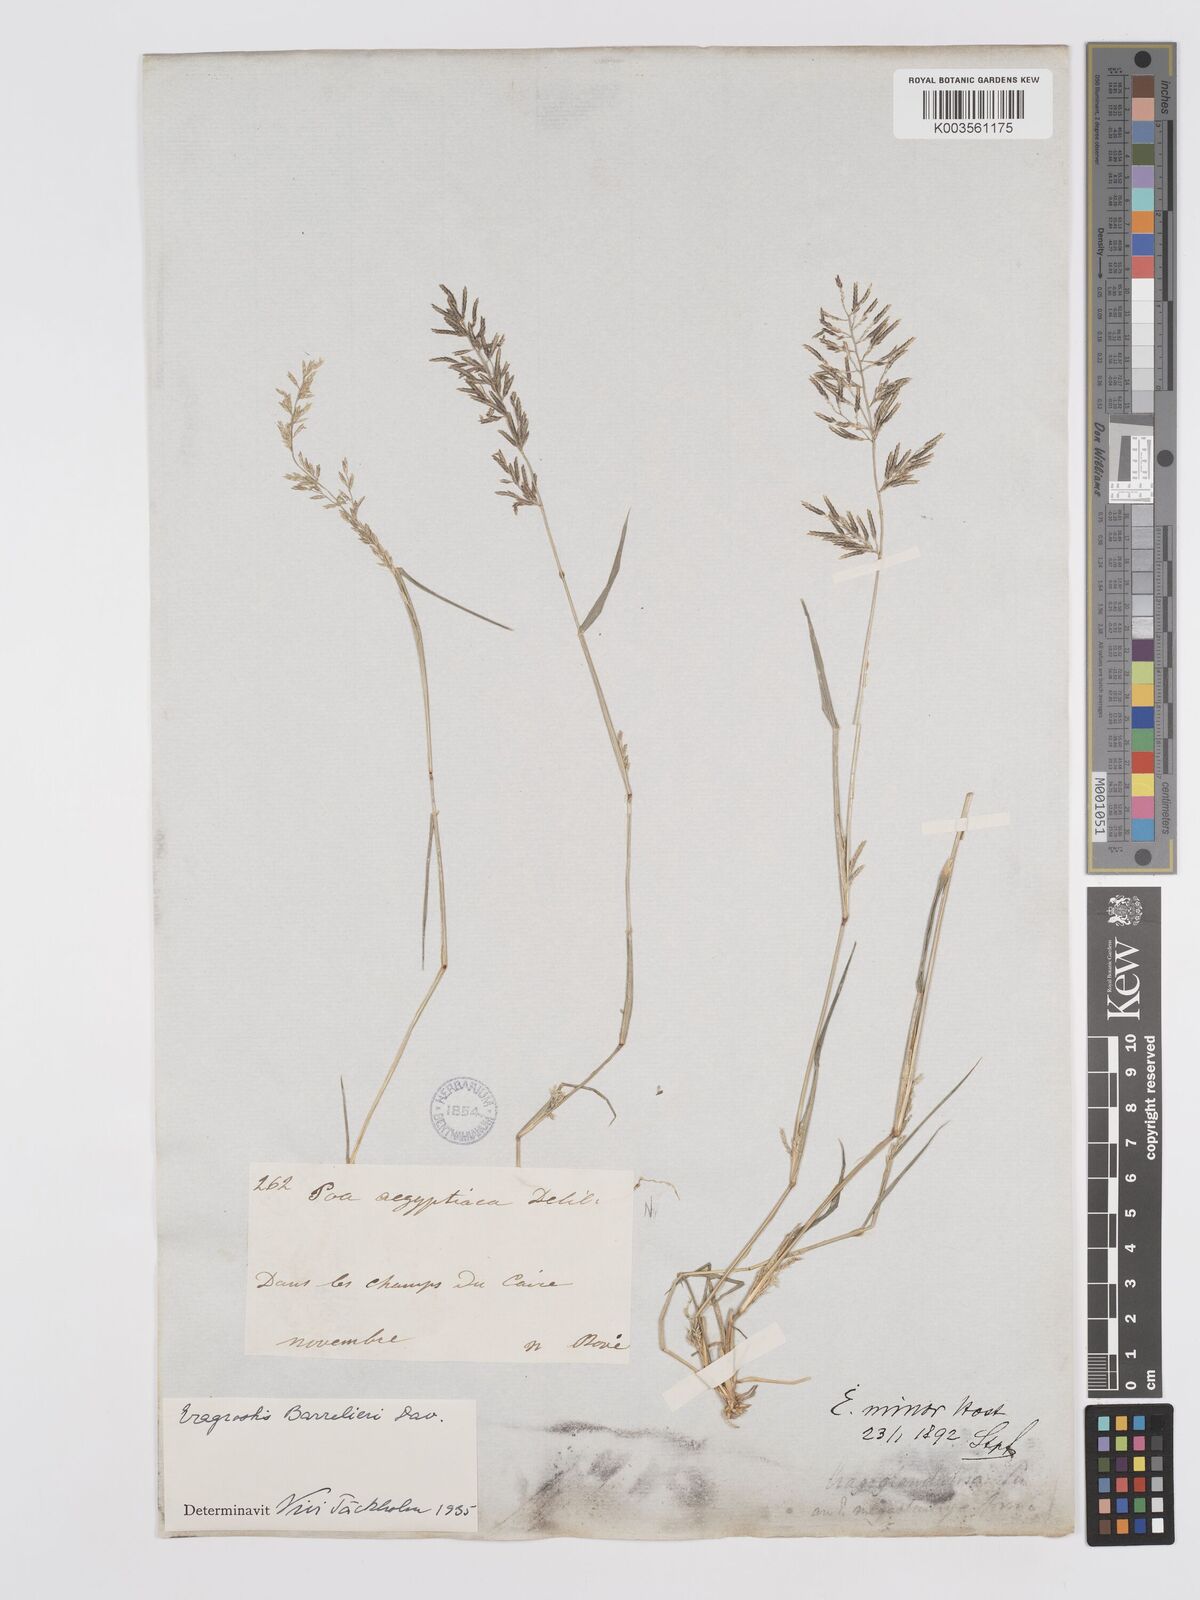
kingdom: Plantae
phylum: Tracheophyta
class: Liliopsida
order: Poales
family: Poaceae
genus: Eragrostis
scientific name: Eragrostis barrelieri
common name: Mediterranean lovegrass
